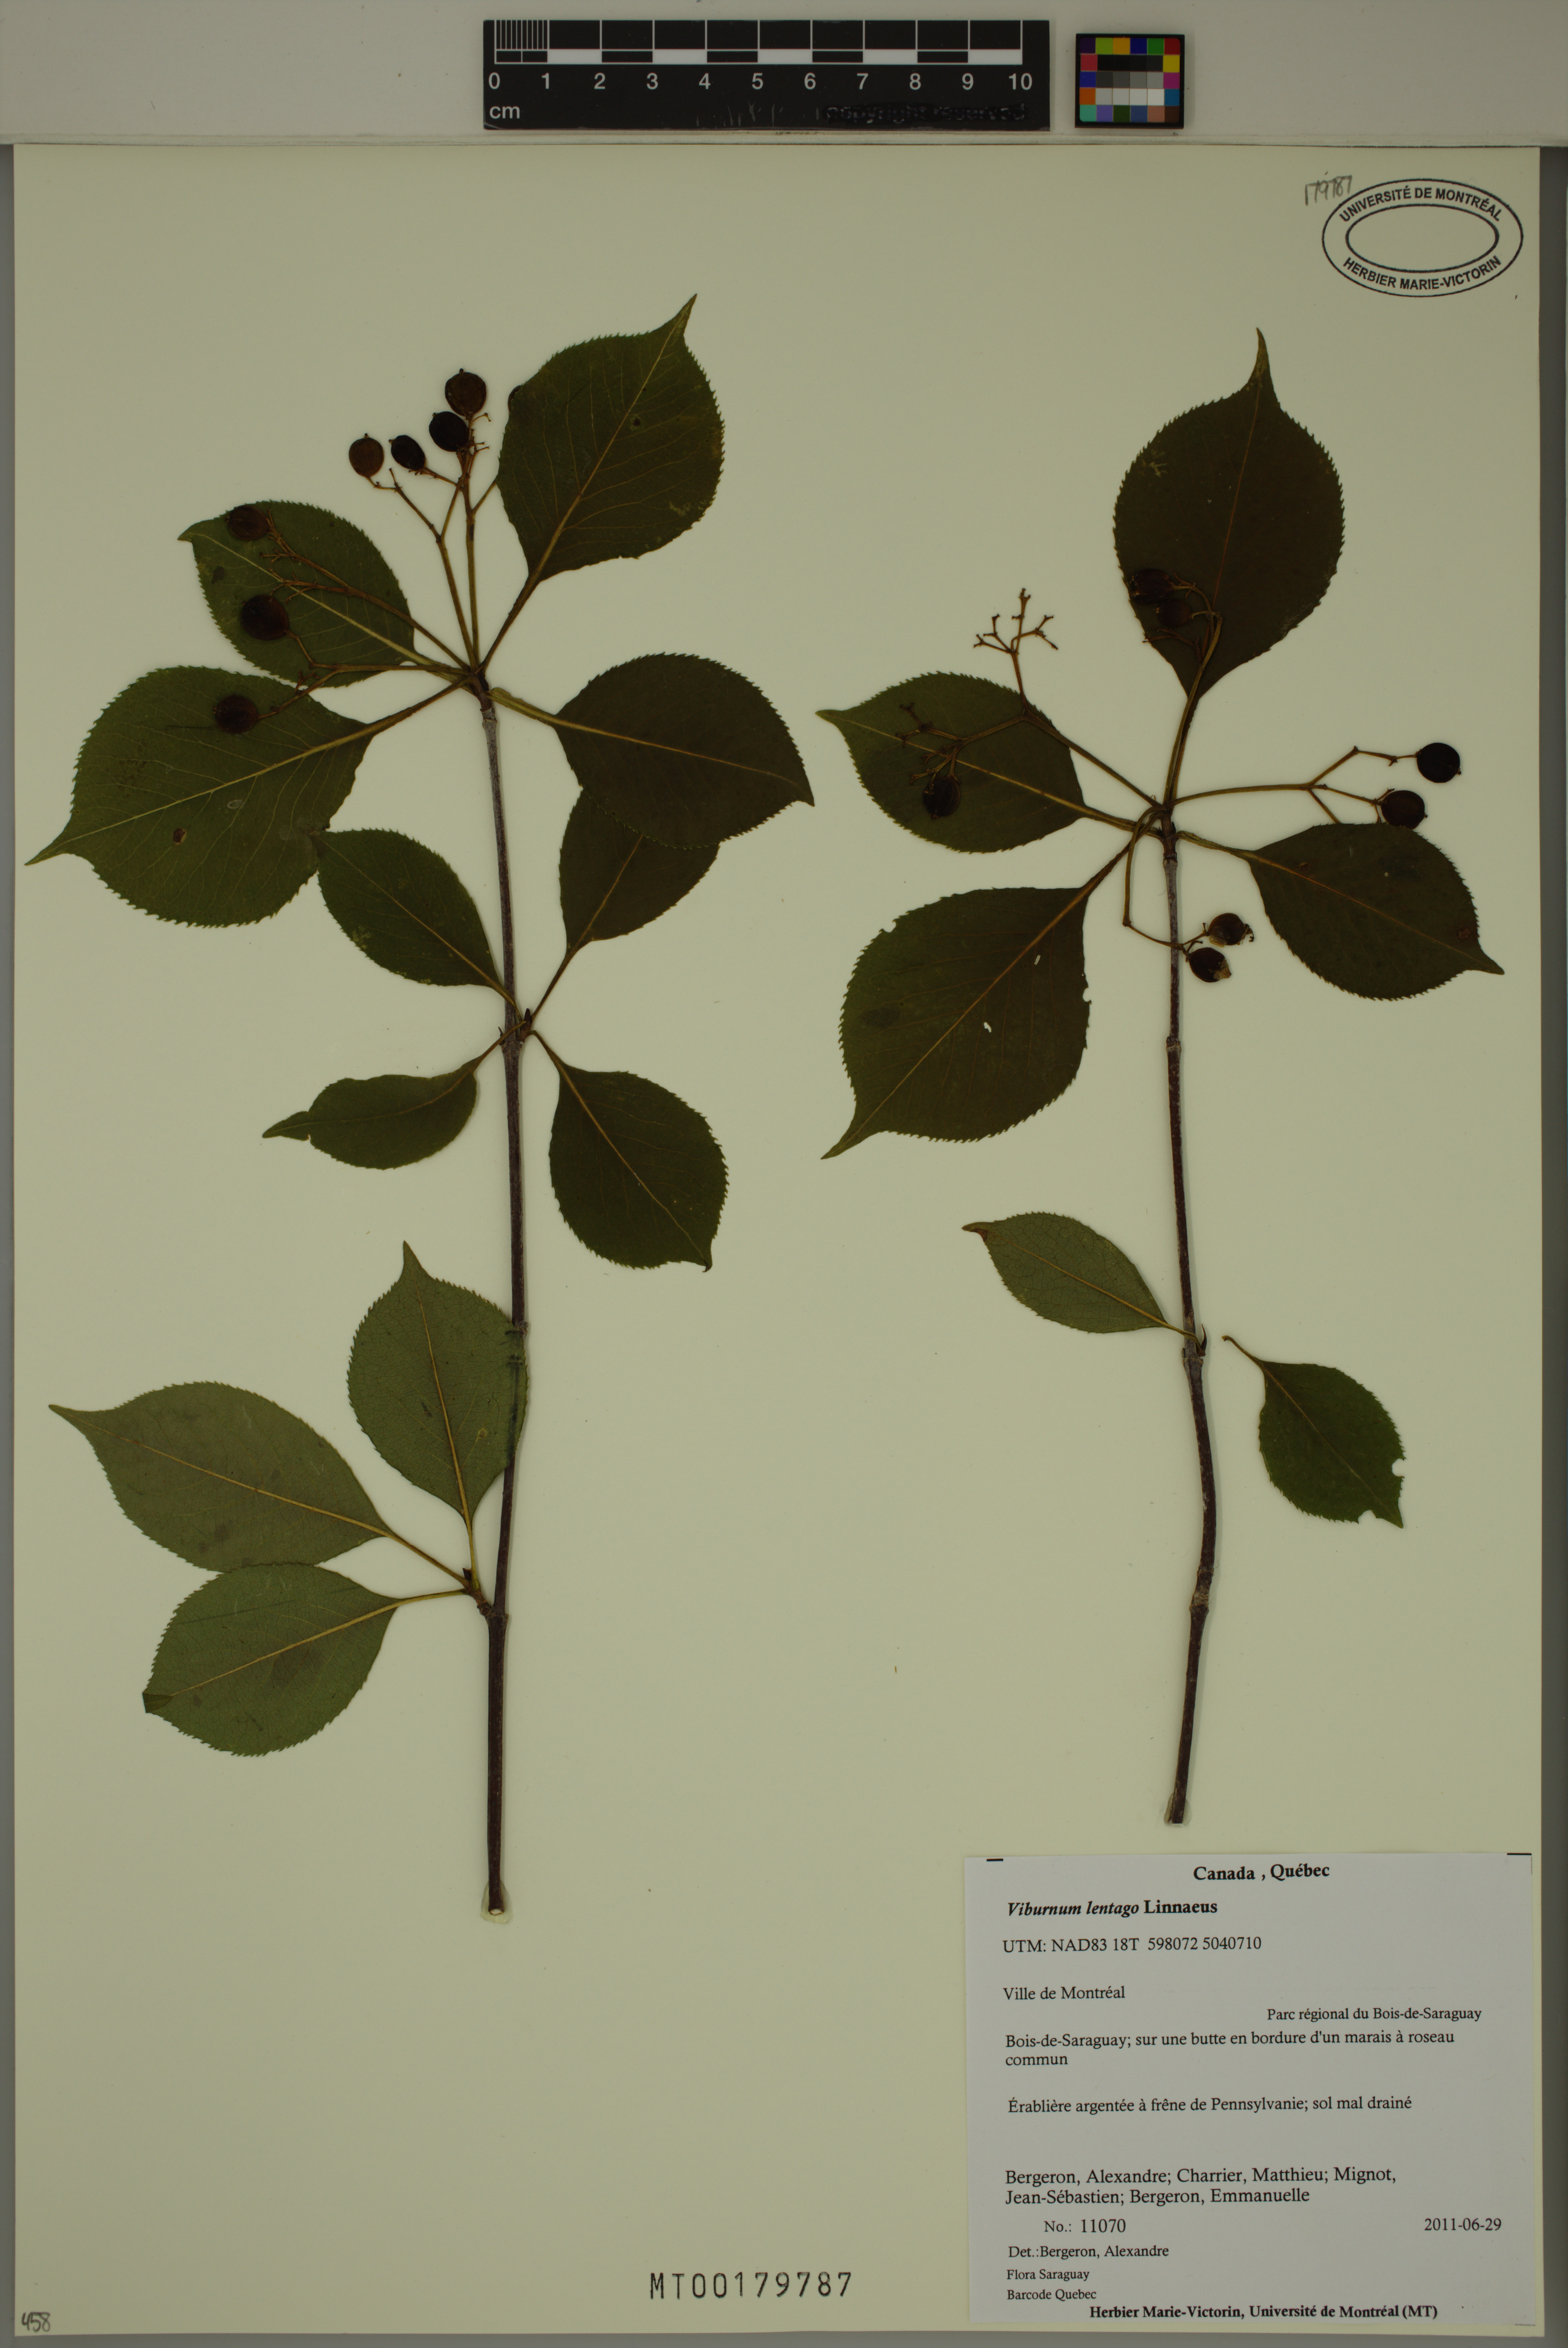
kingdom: Plantae
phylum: Tracheophyta
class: Magnoliopsida
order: Dipsacales
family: Viburnaceae
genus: Viburnum
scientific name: Viburnum lentago
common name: Black haw
